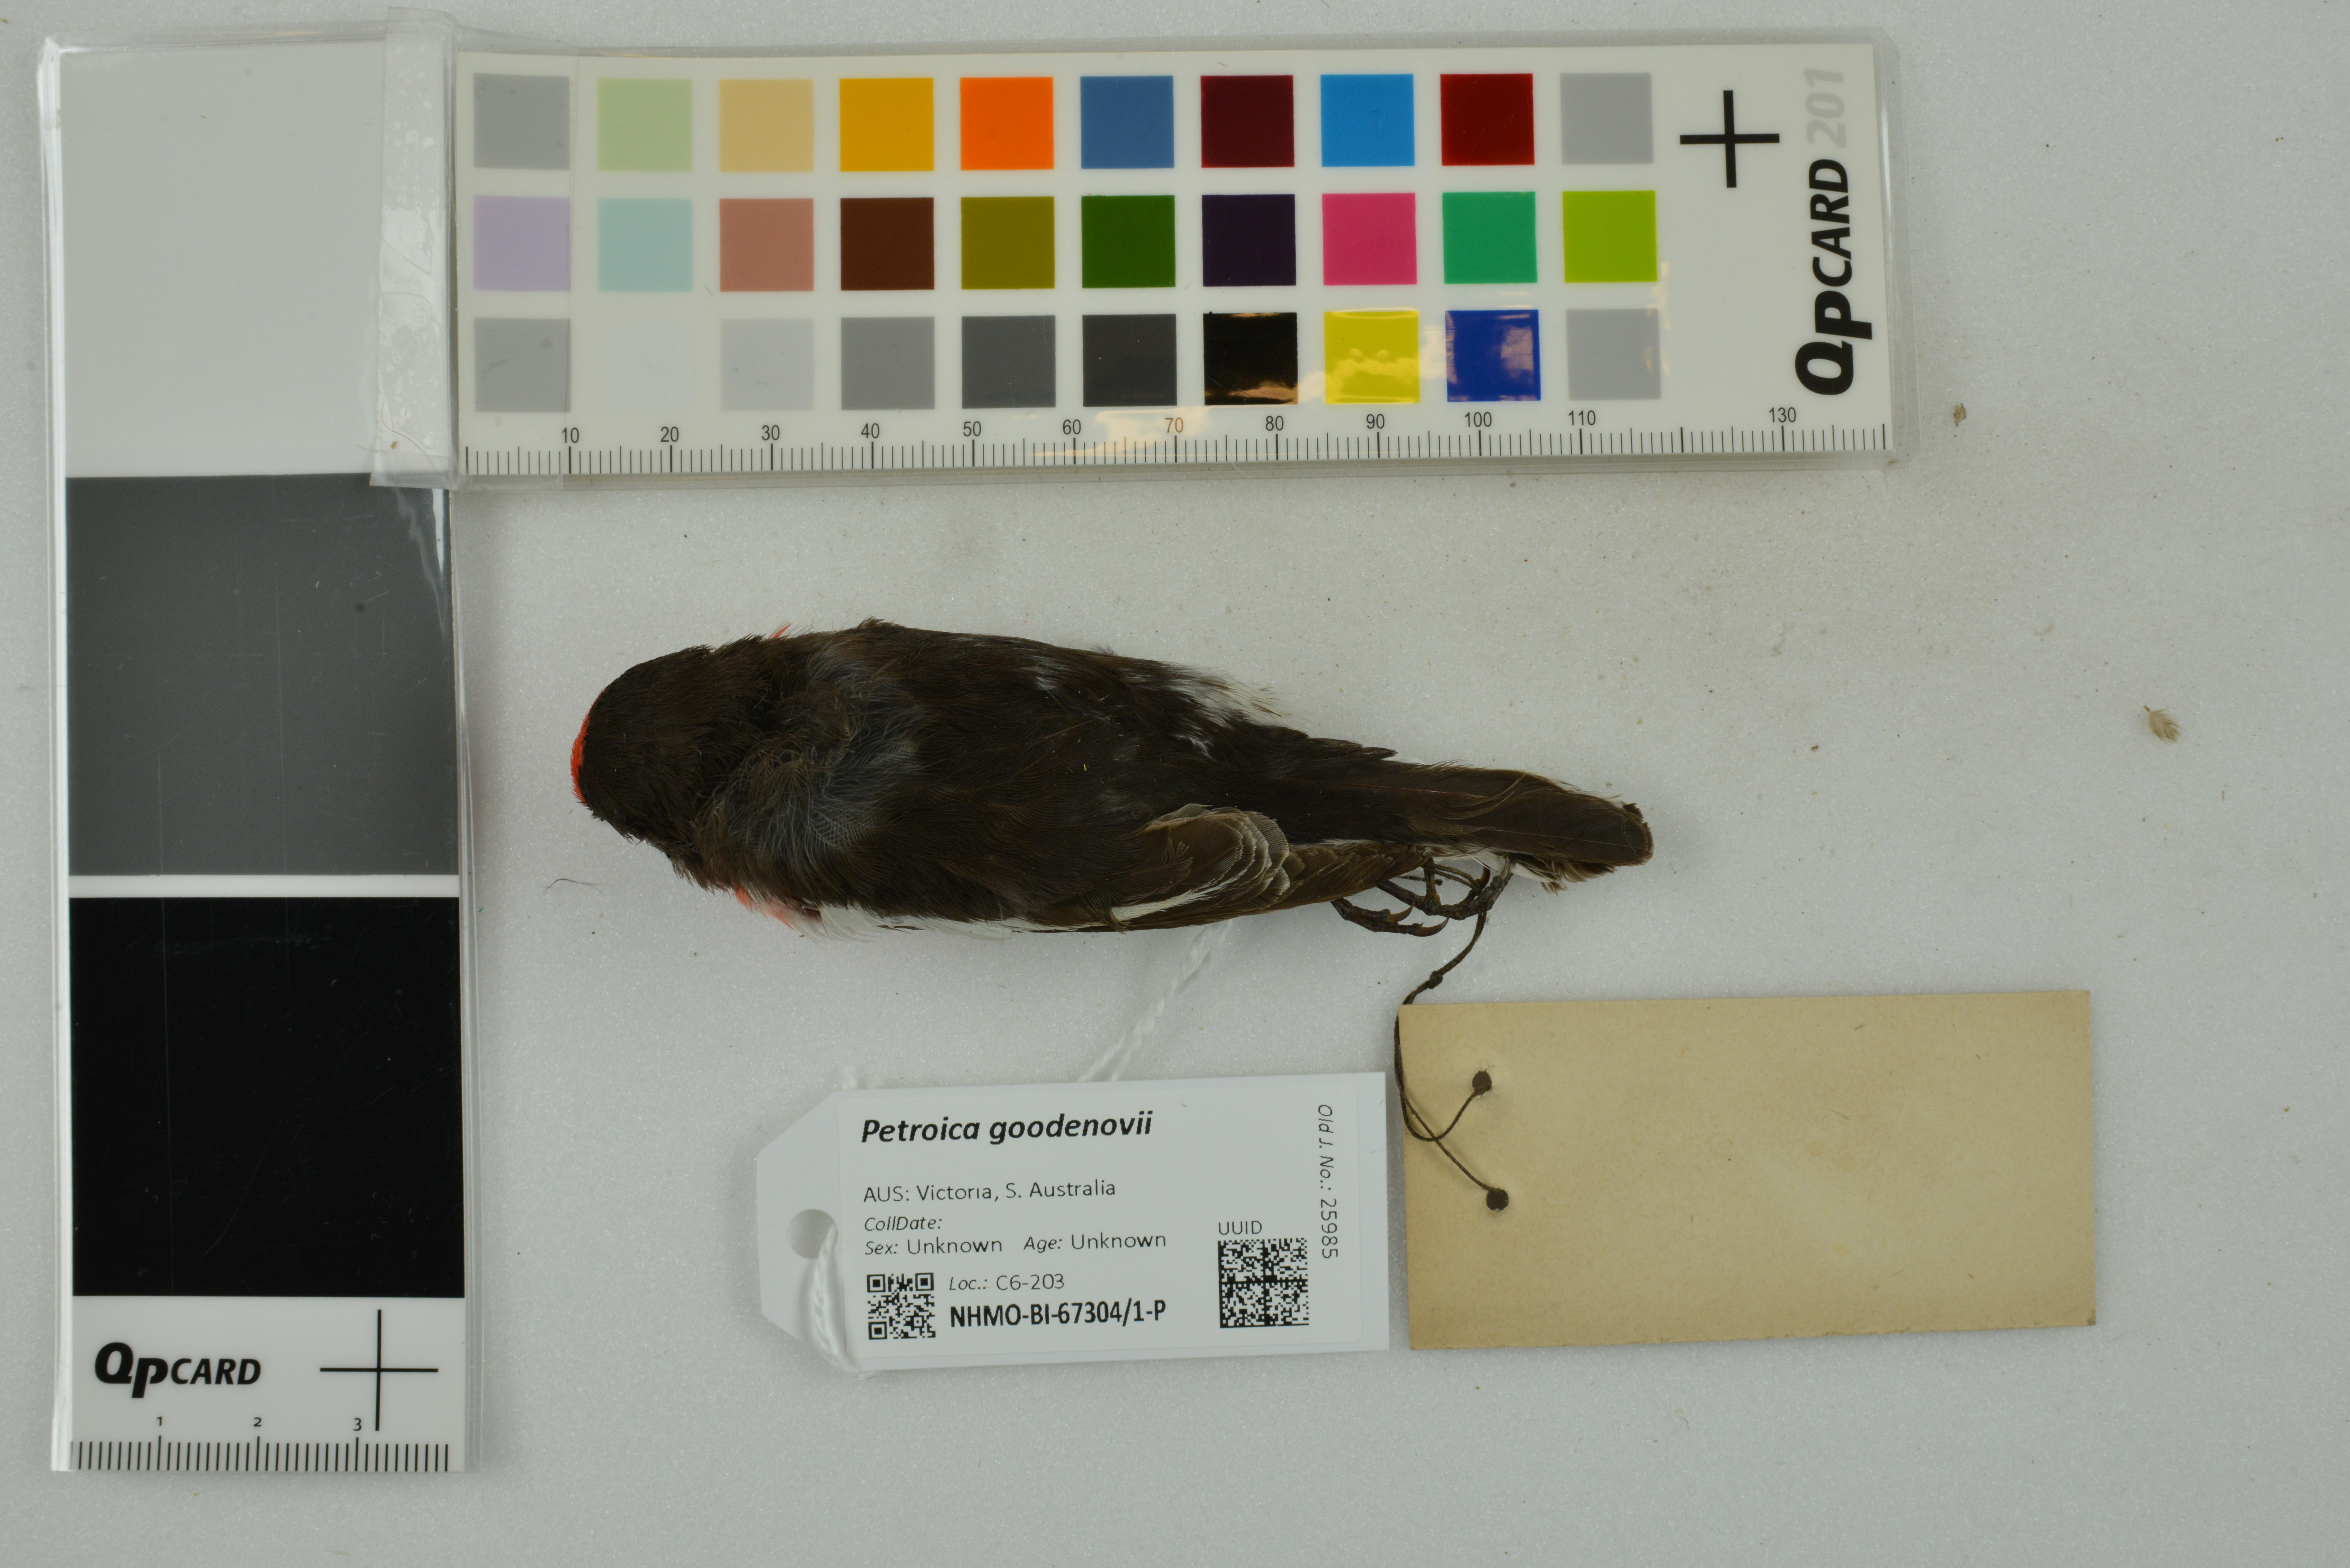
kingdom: Animalia
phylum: Chordata
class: Aves
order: Passeriformes
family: Petroicidae
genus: Petroica
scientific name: Petroica goodenovii
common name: Red-capped robin
